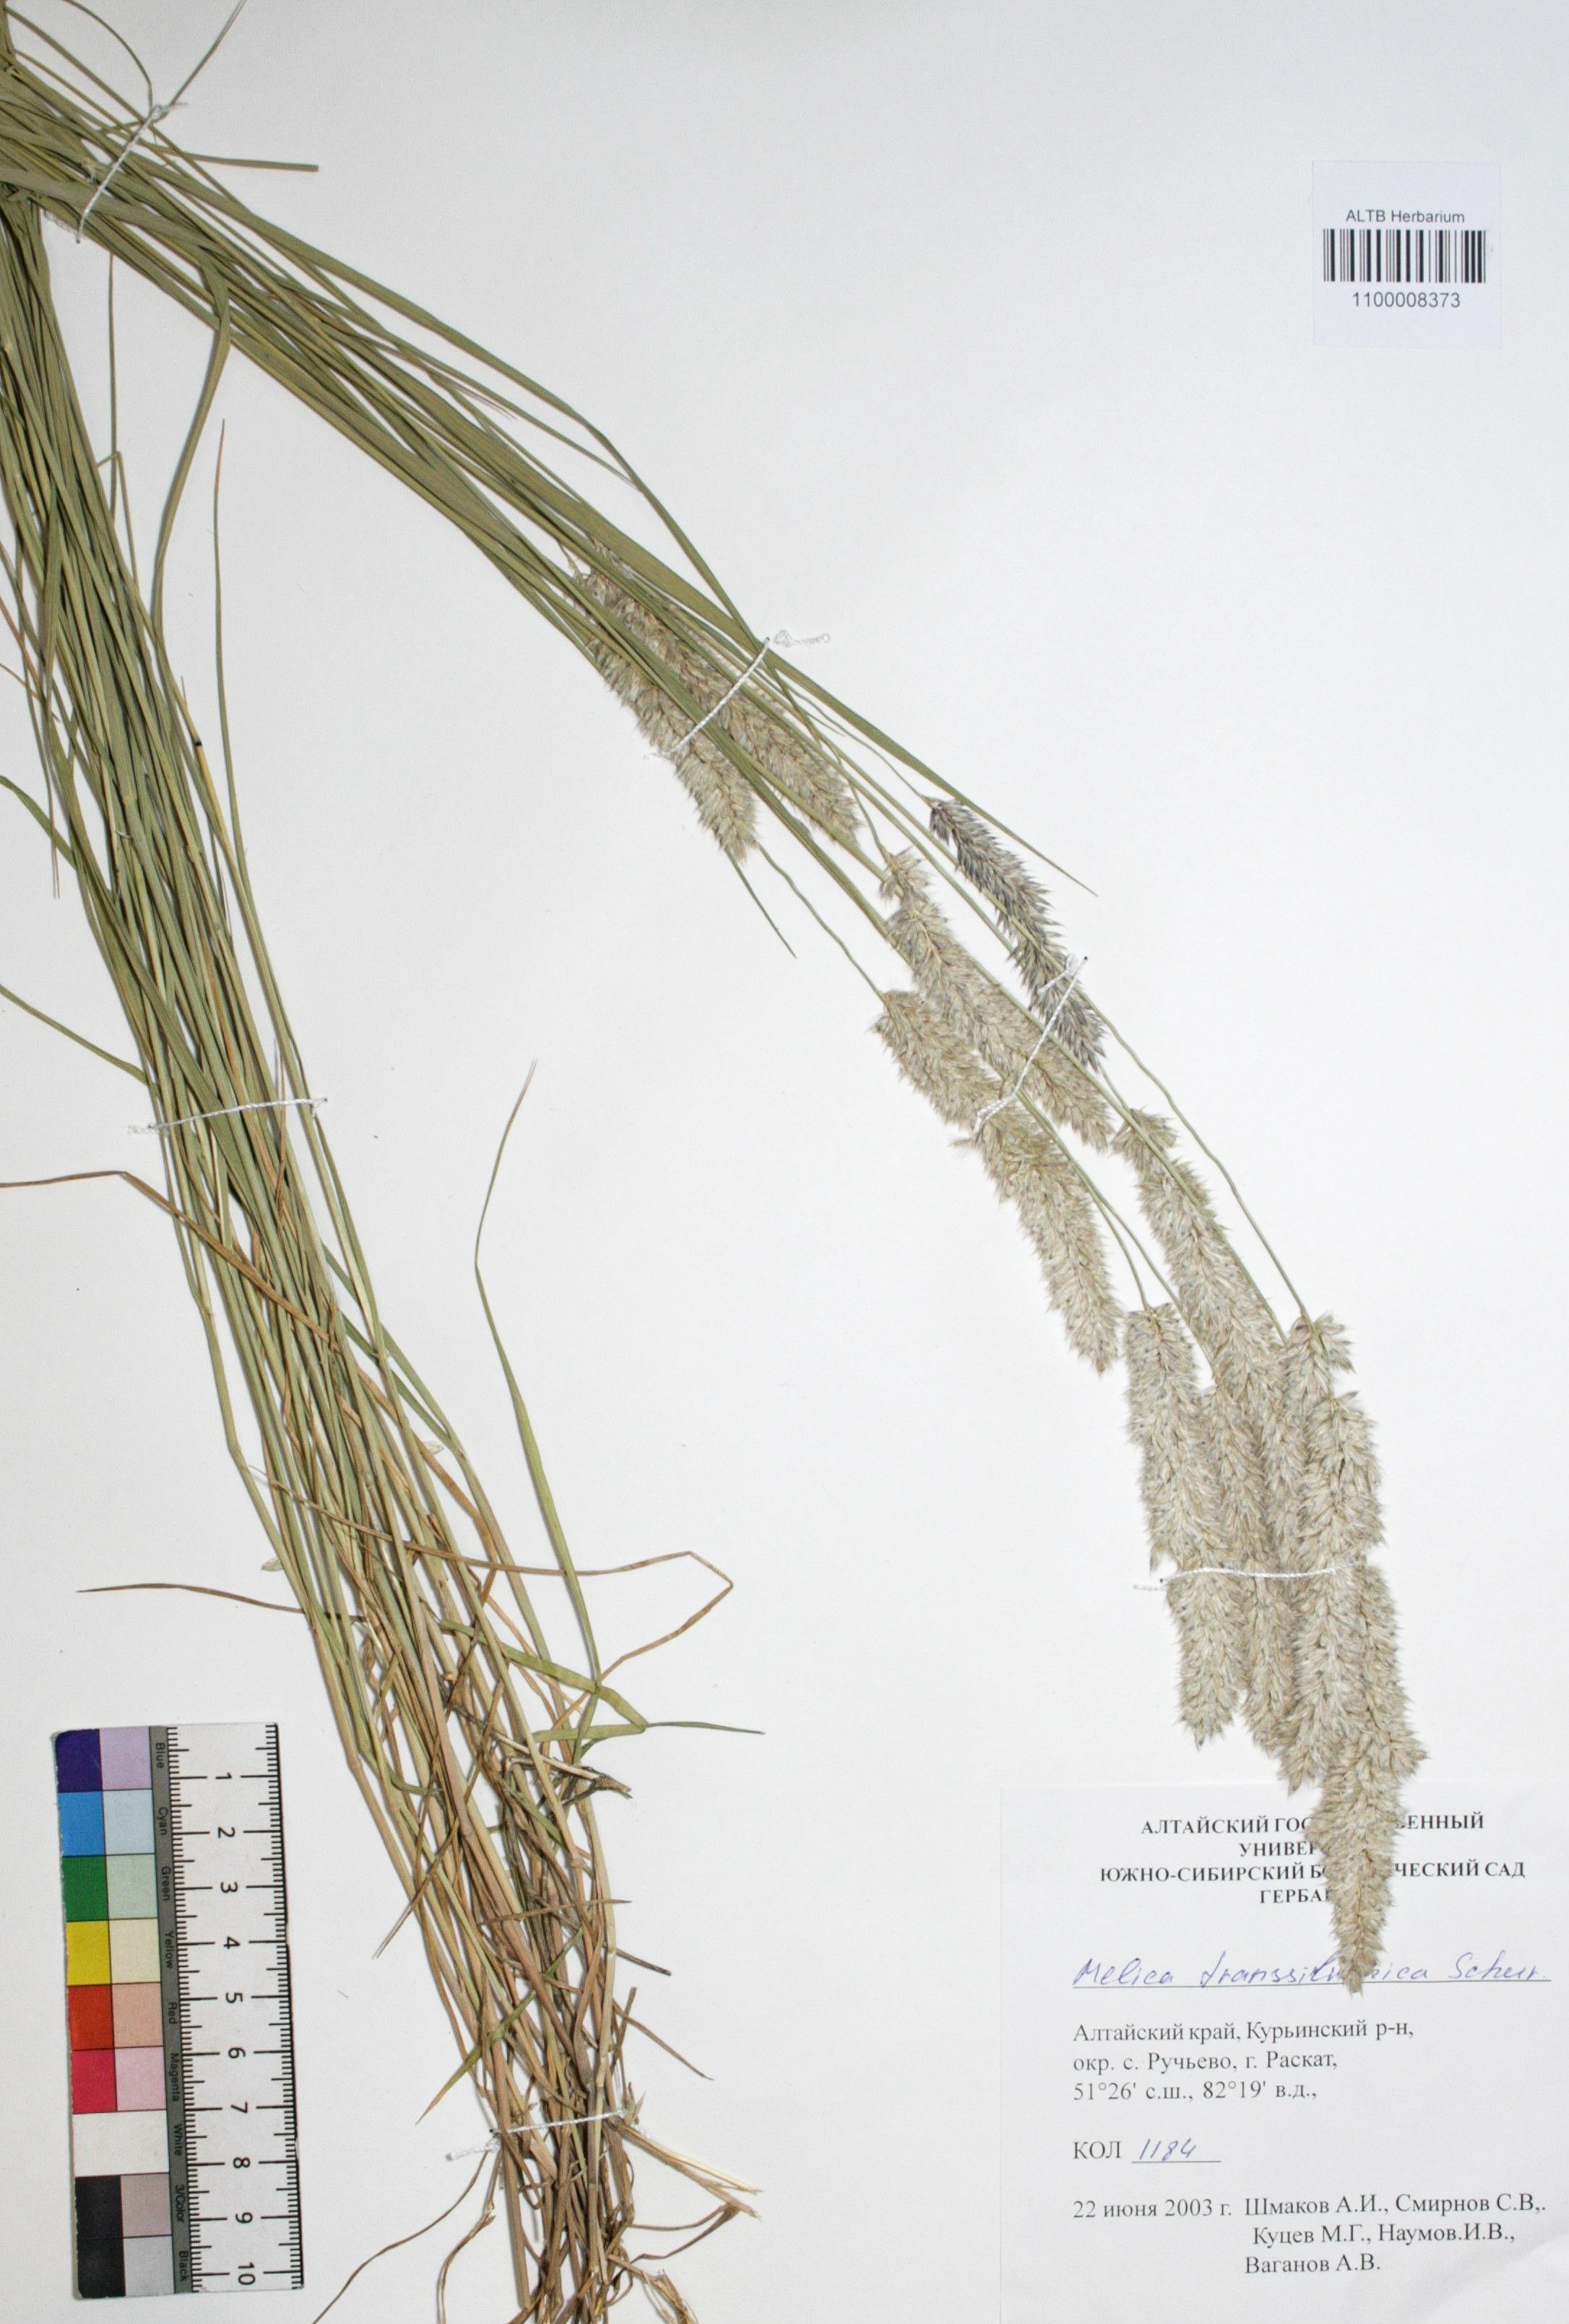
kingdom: Plantae
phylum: Tracheophyta
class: Liliopsida
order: Poales
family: Poaceae
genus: Melica
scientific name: Melica transsilvanica
